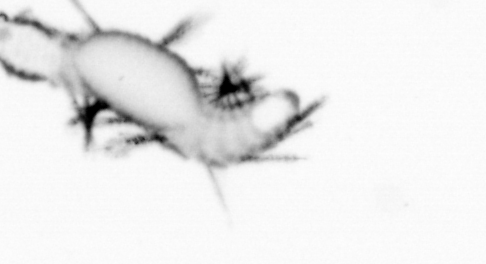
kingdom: Animalia
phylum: Annelida
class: Polychaeta
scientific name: Polychaeta
